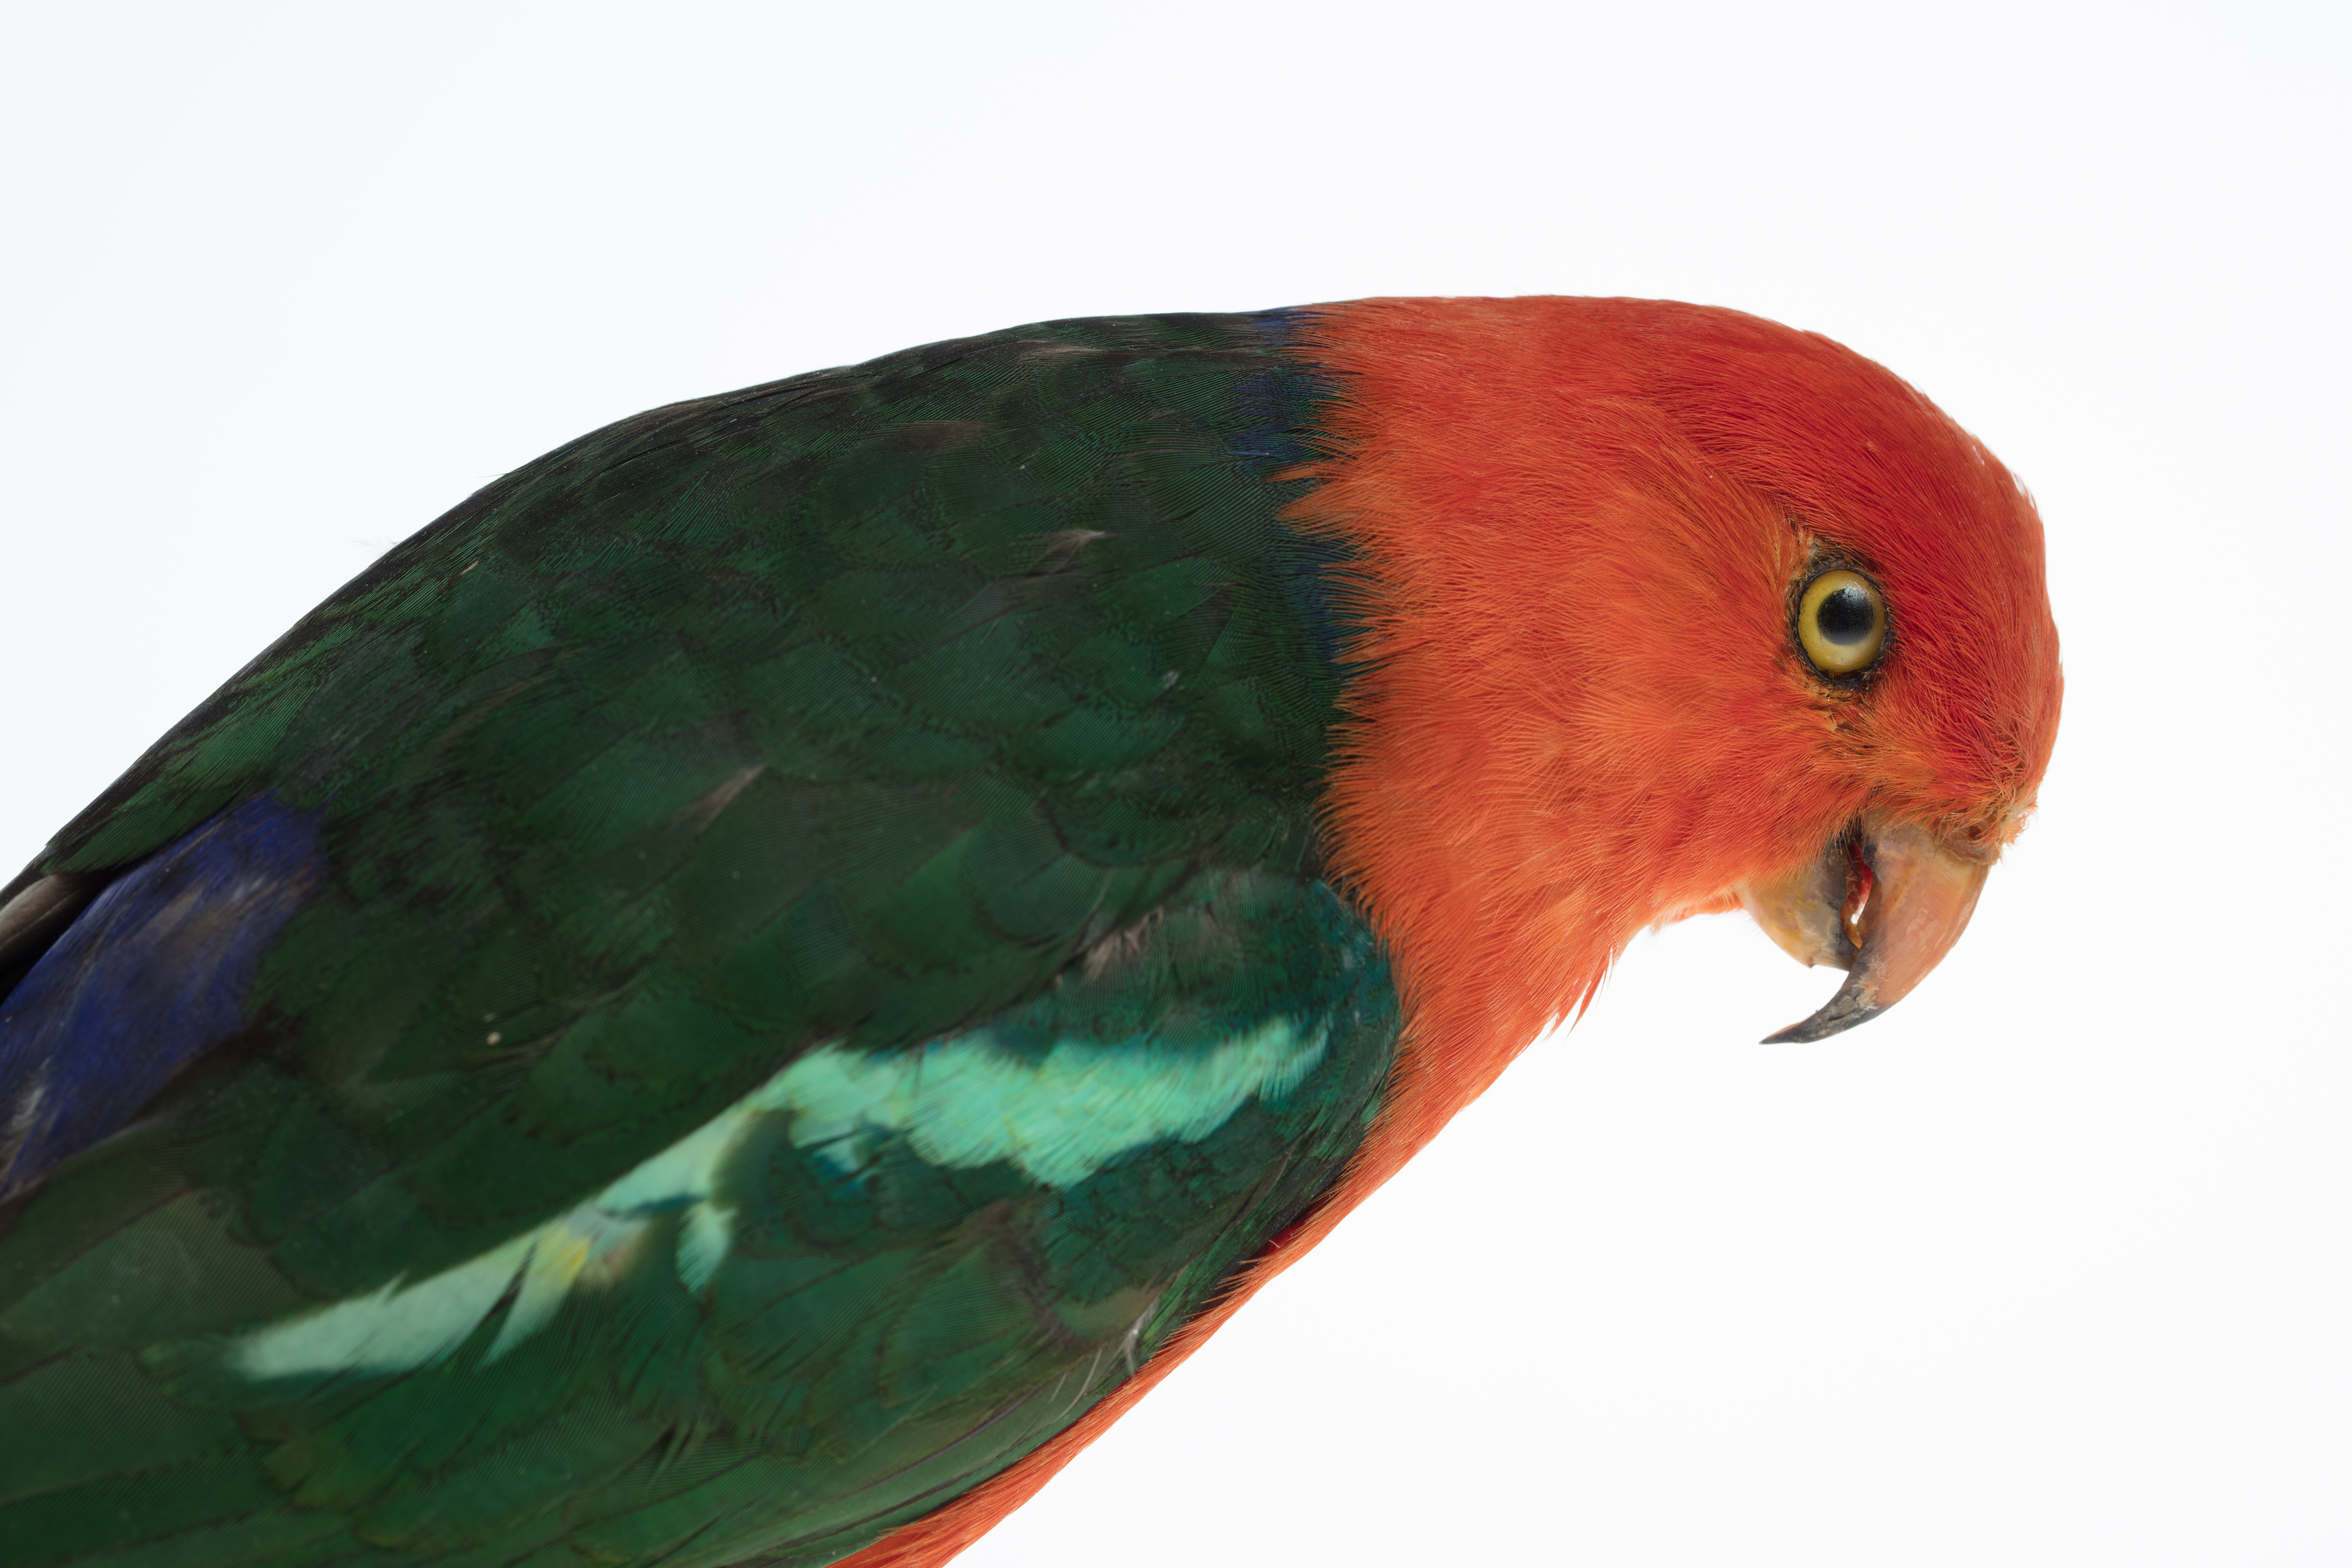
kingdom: Animalia
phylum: Chordata
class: Aves
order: Psittaciformes
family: Psittacidae
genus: Alisterus
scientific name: Alisterus scapularis
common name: Australian king parrot
